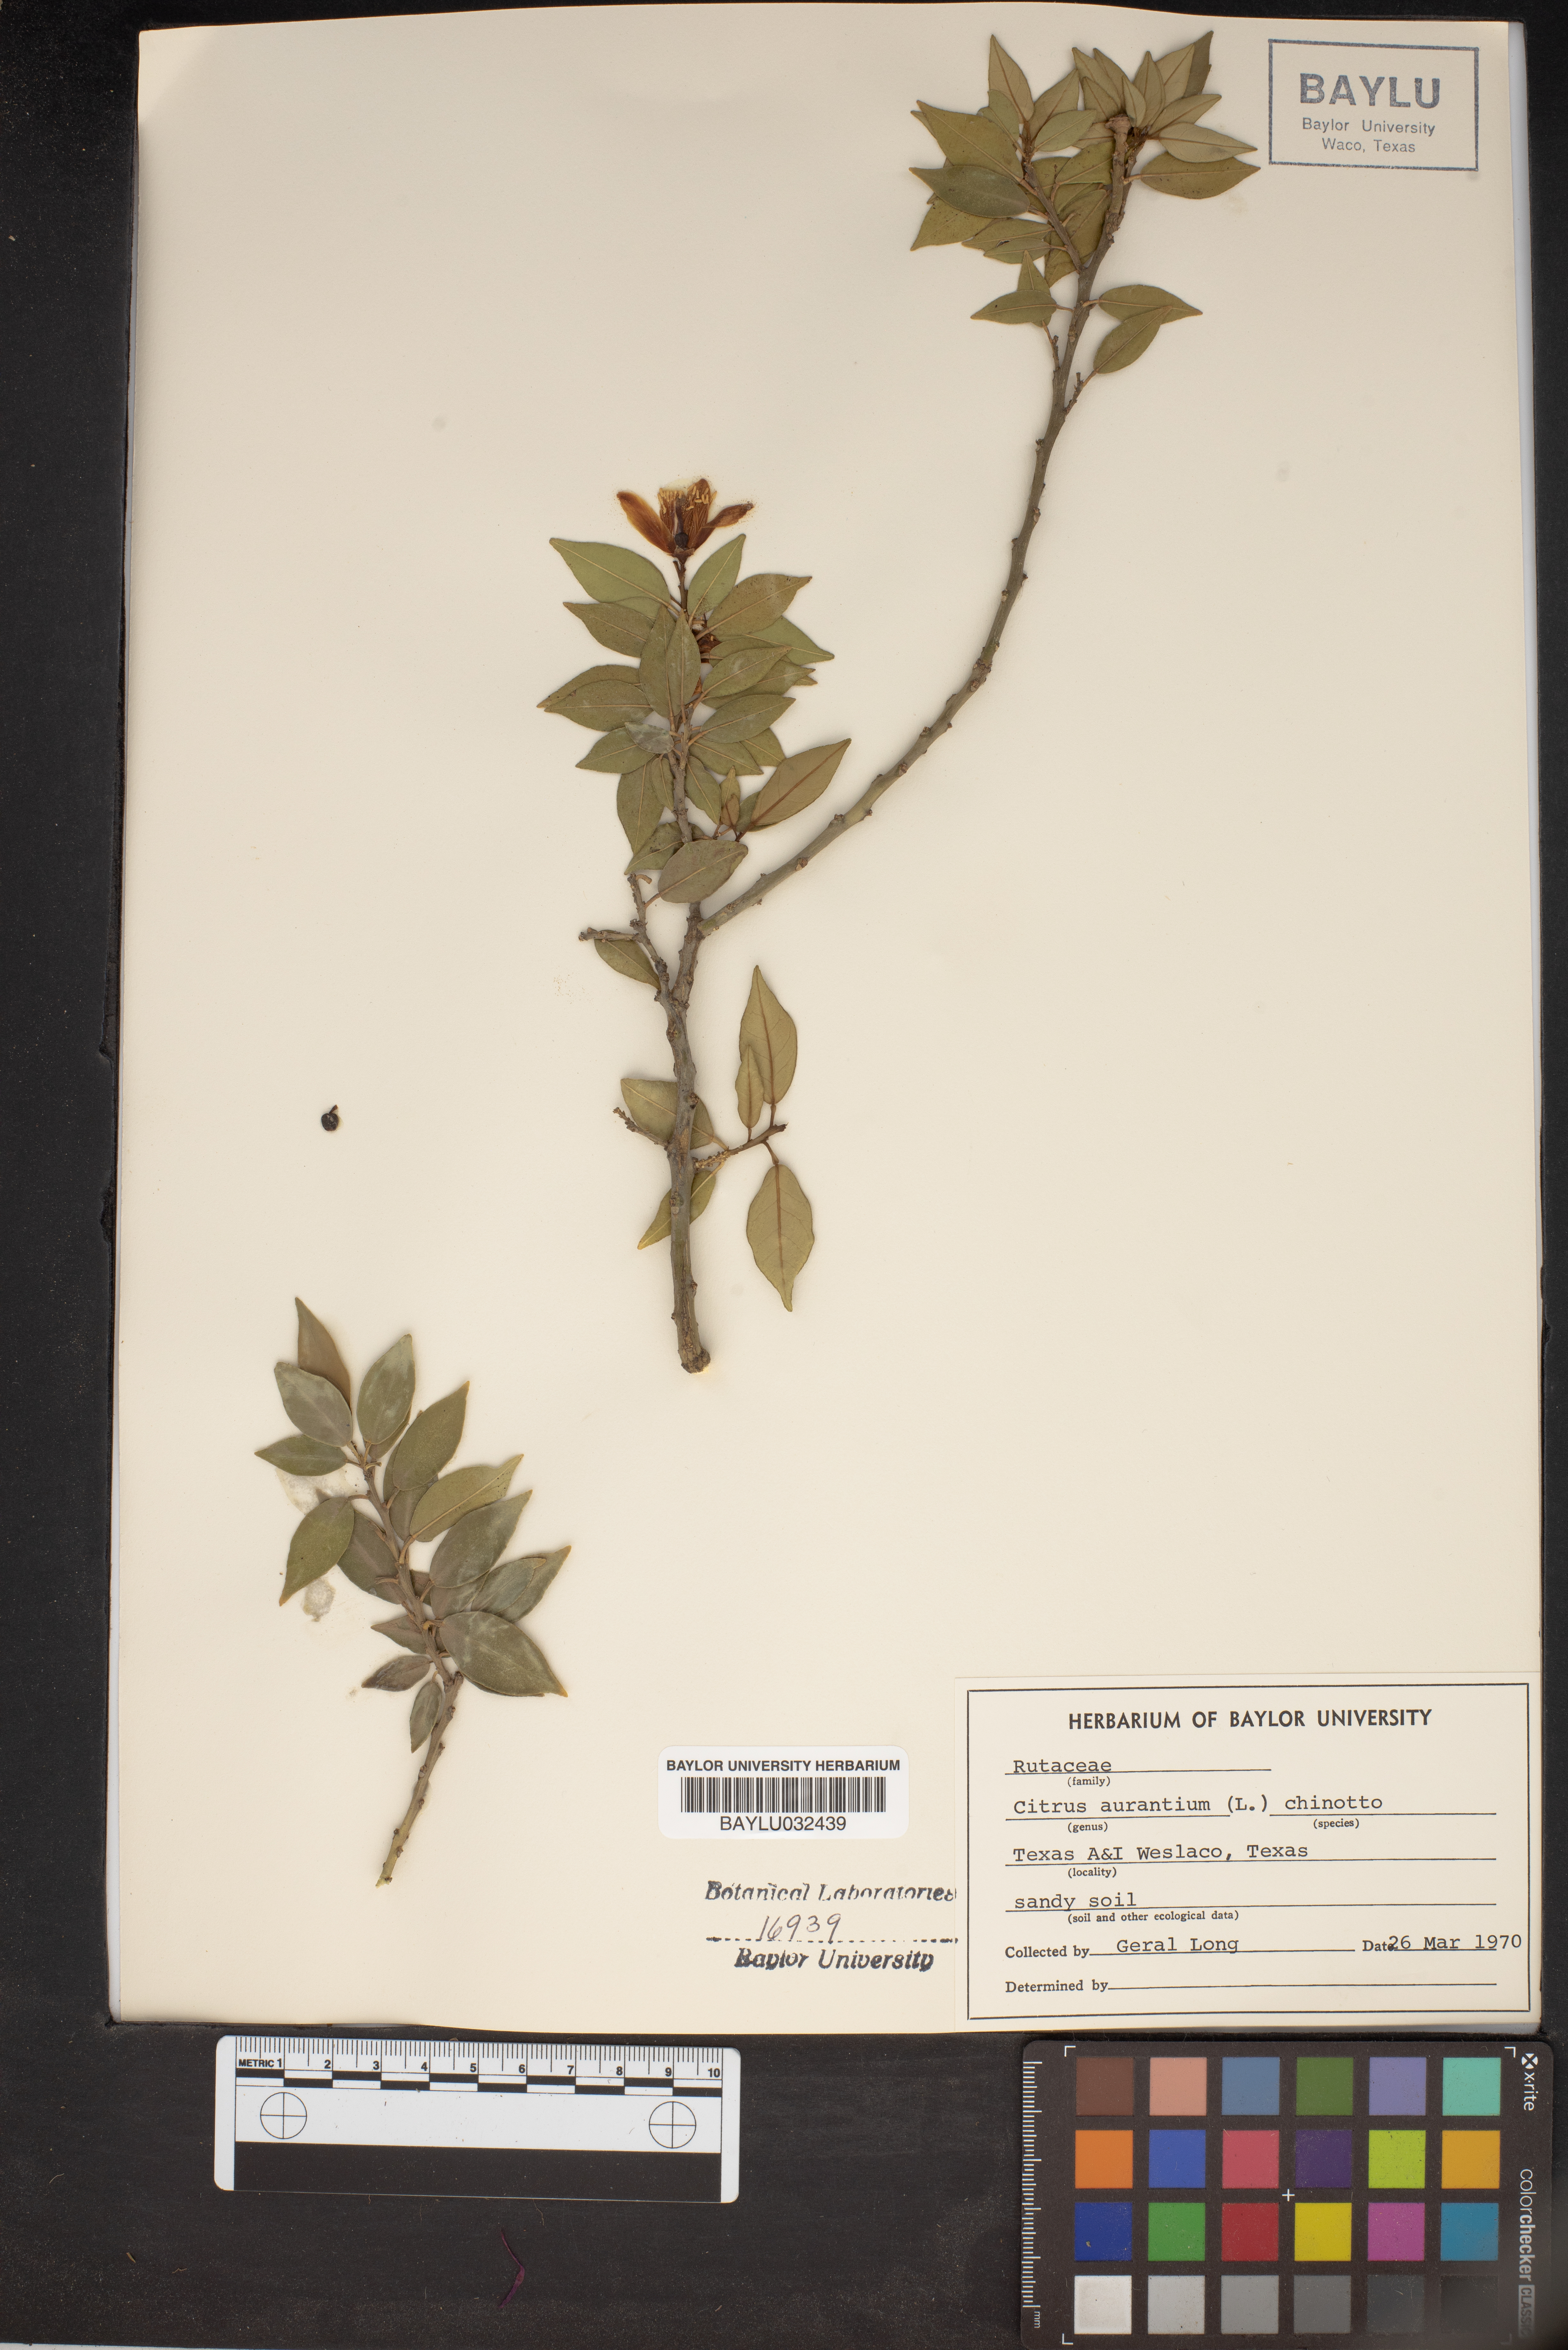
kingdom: Plantae
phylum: Tracheophyta
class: Magnoliopsida
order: Sapindales
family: Rutaceae
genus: Citrus
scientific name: Citrus aurantium
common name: Sour orange
